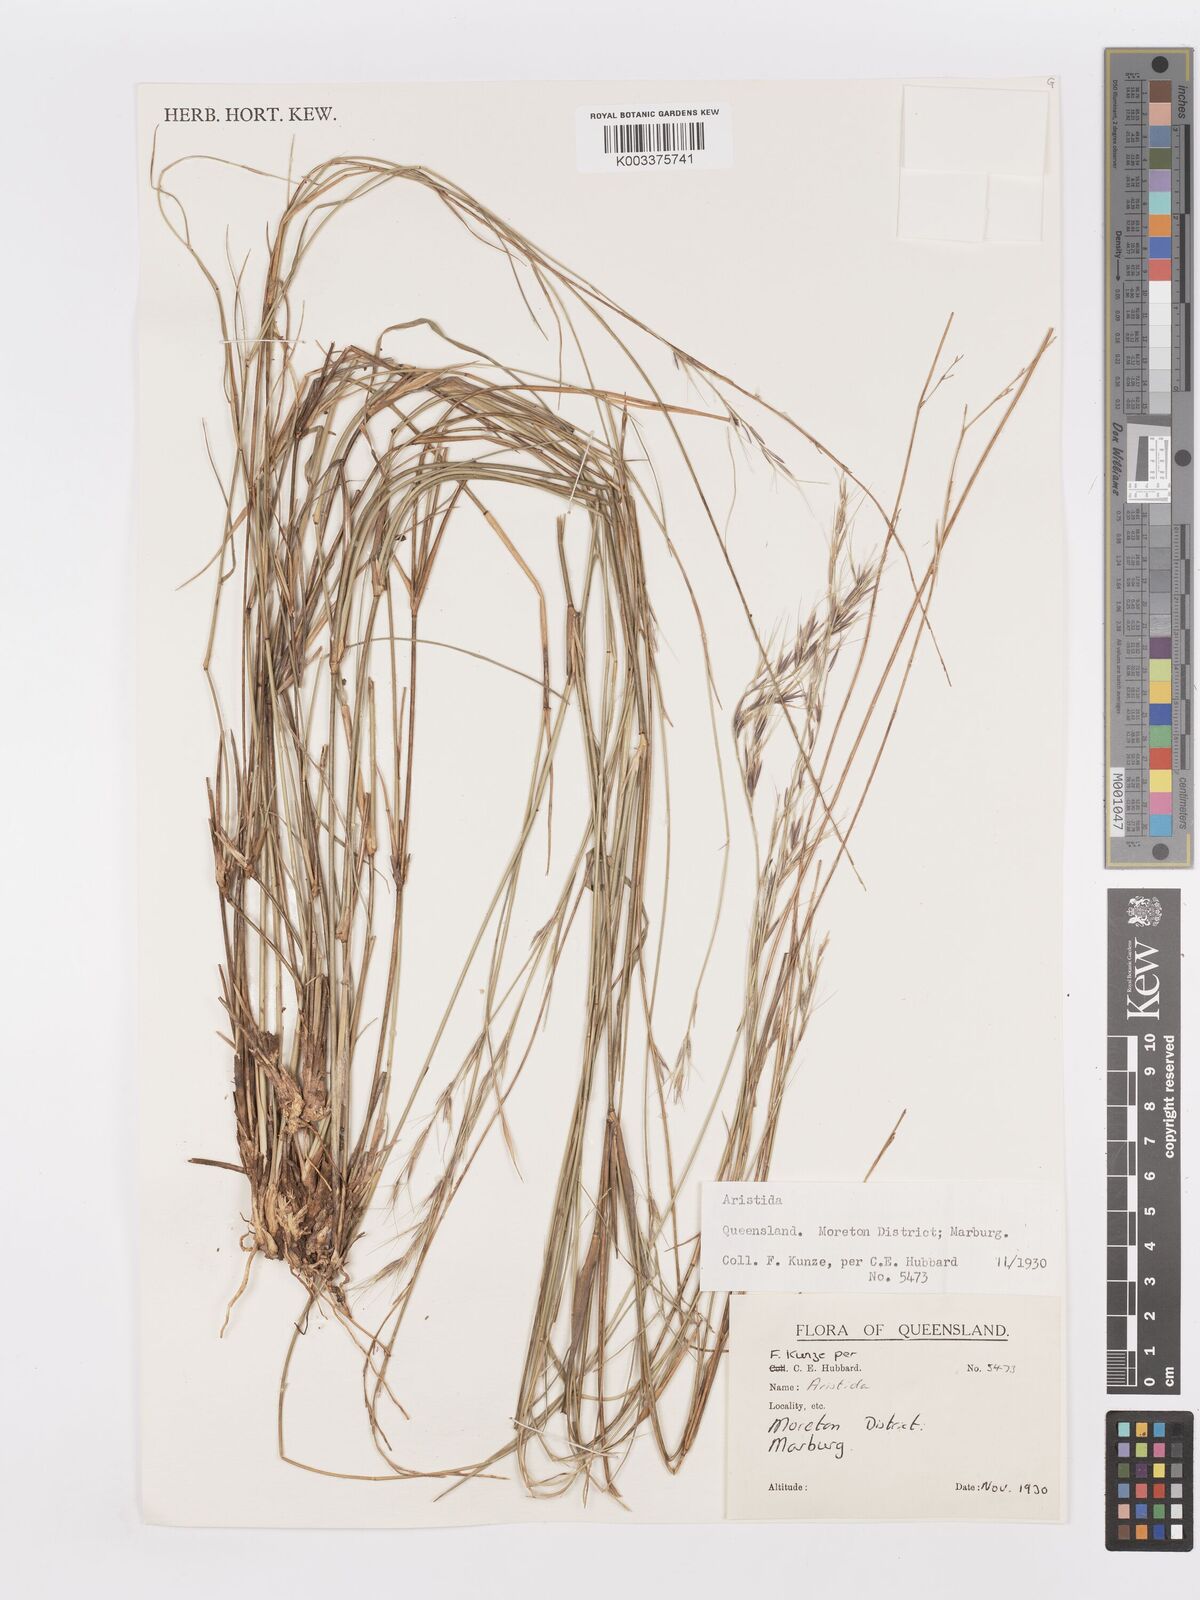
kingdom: Plantae
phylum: Tracheophyta
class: Liliopsida
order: Poales
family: Poaceae
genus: Aristida
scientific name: Aristida
